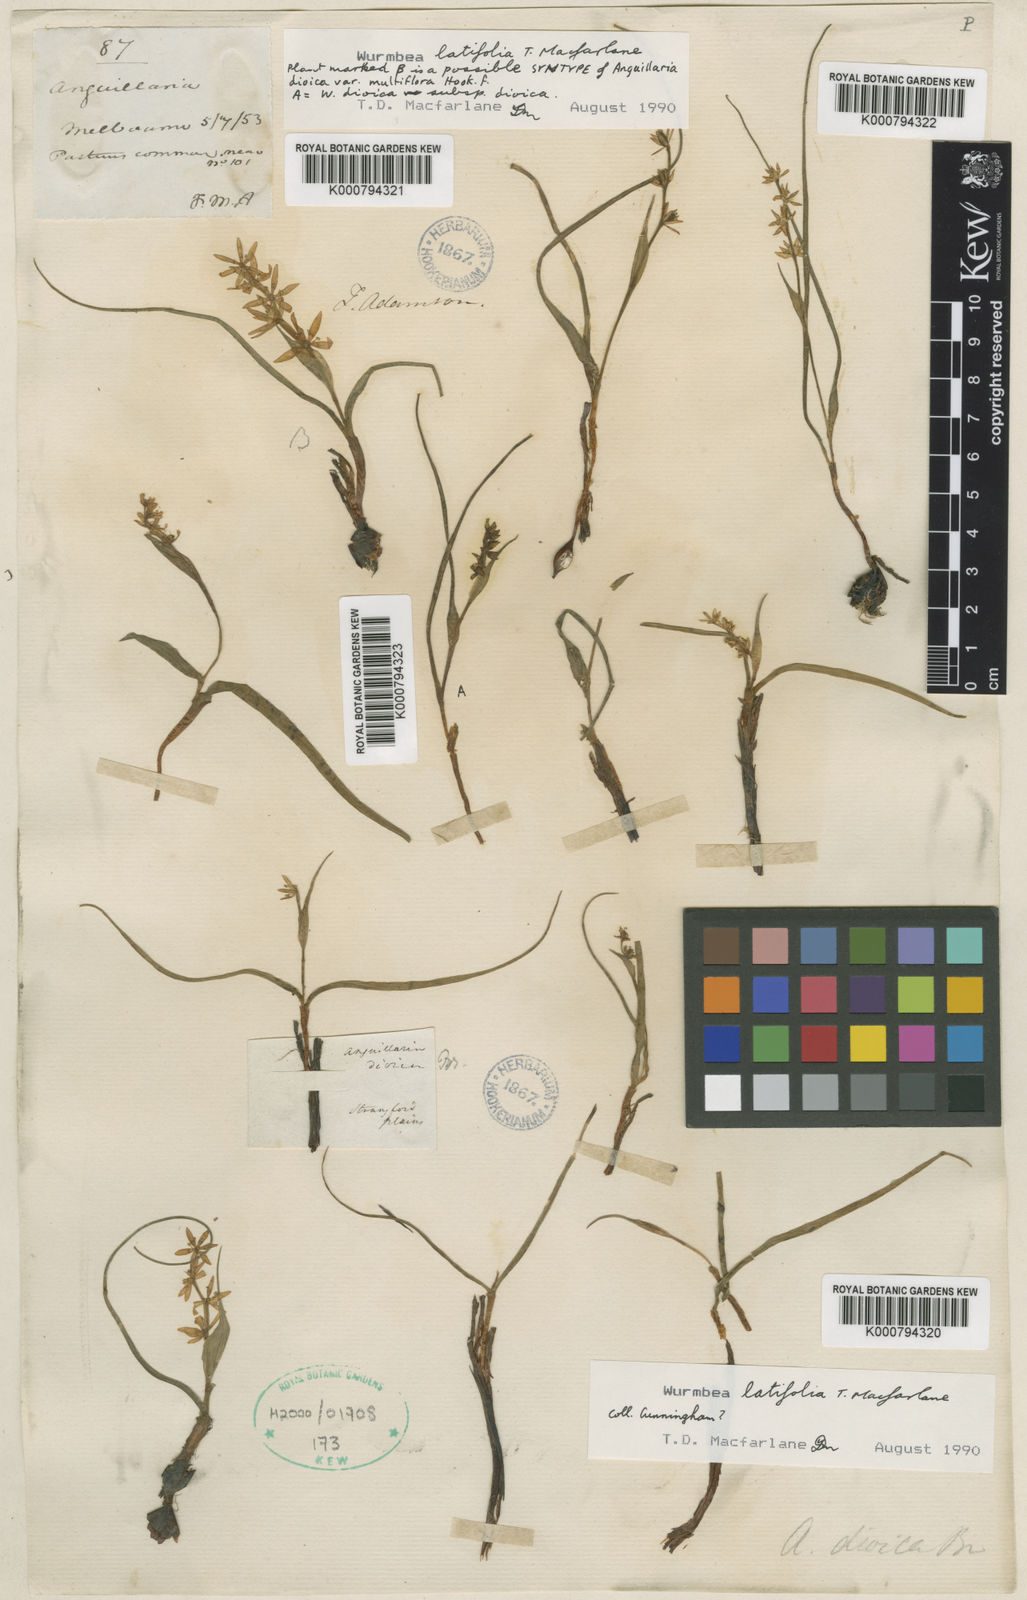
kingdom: Plantae
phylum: Tracheophyta
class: Liliopsida
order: Liliales
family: Colchicaceae
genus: Wurmbea
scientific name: Wurmbea latifolia
